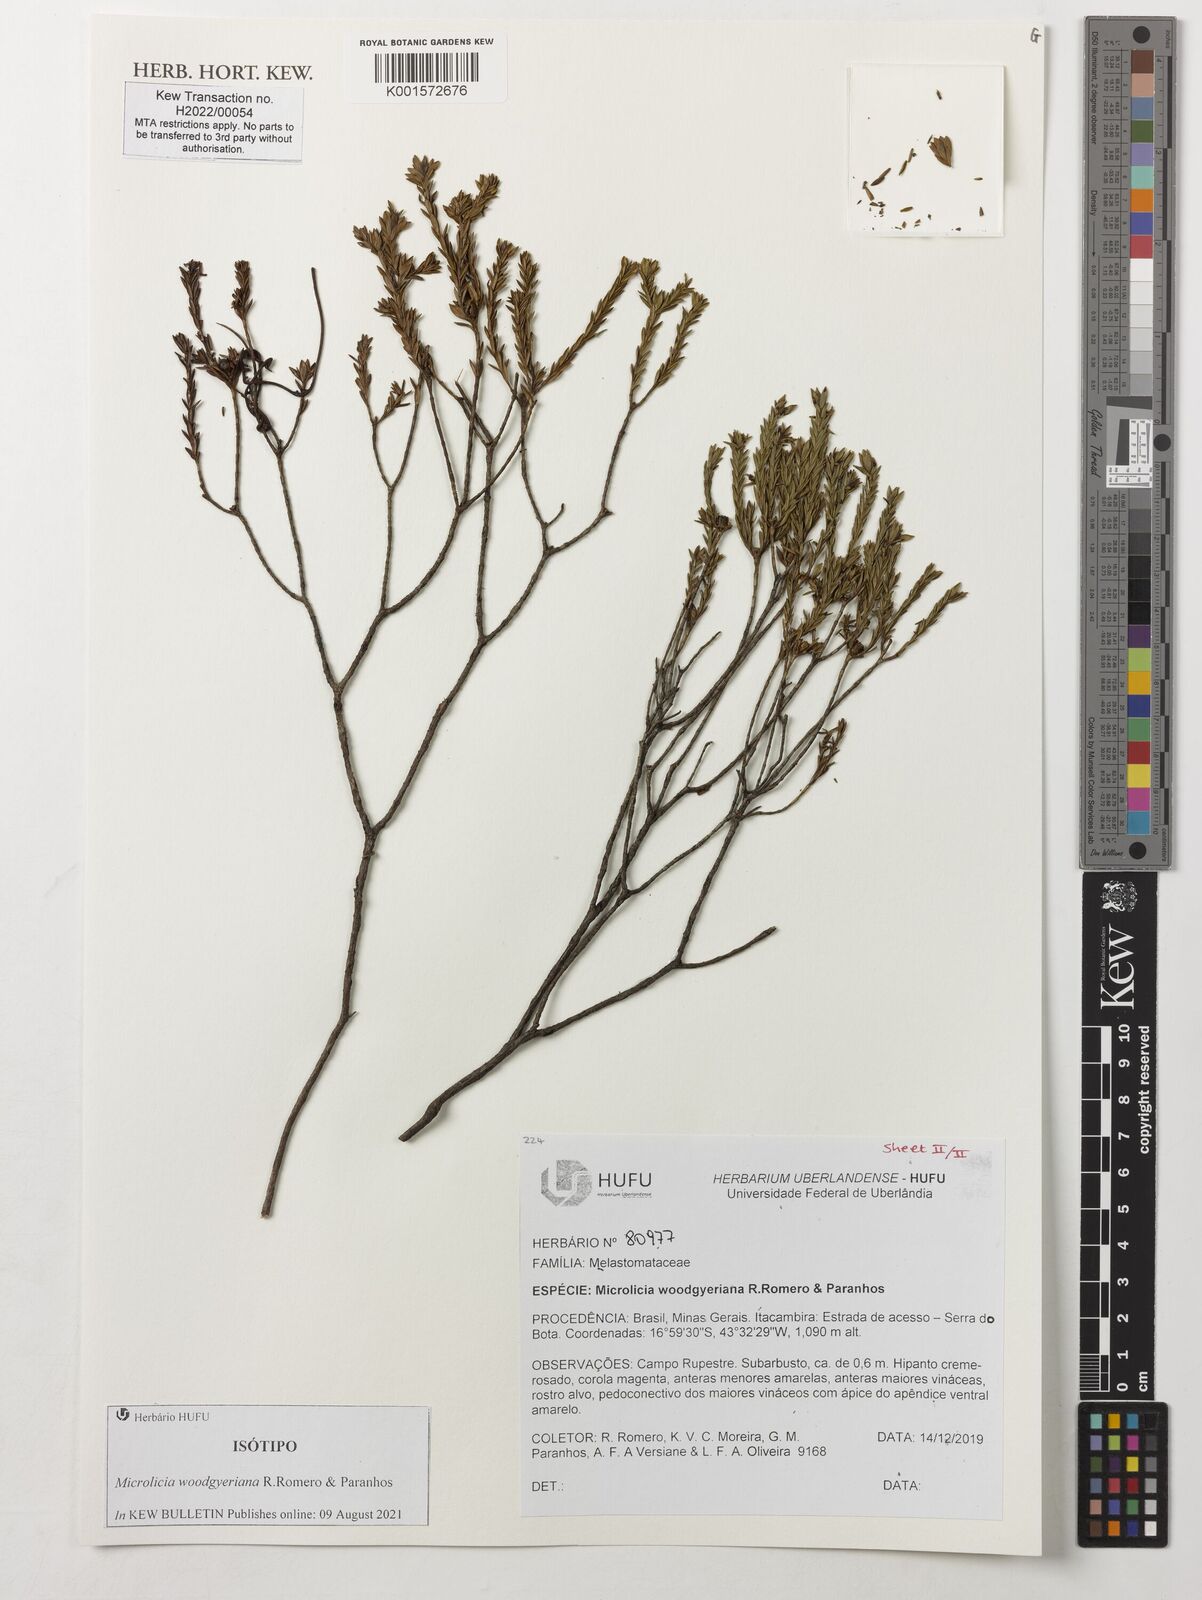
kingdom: Plantae
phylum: Tracheophyta
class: Magnoliopsida
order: Myrtales
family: Melastomataceae
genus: Microlicia
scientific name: Microlicia
